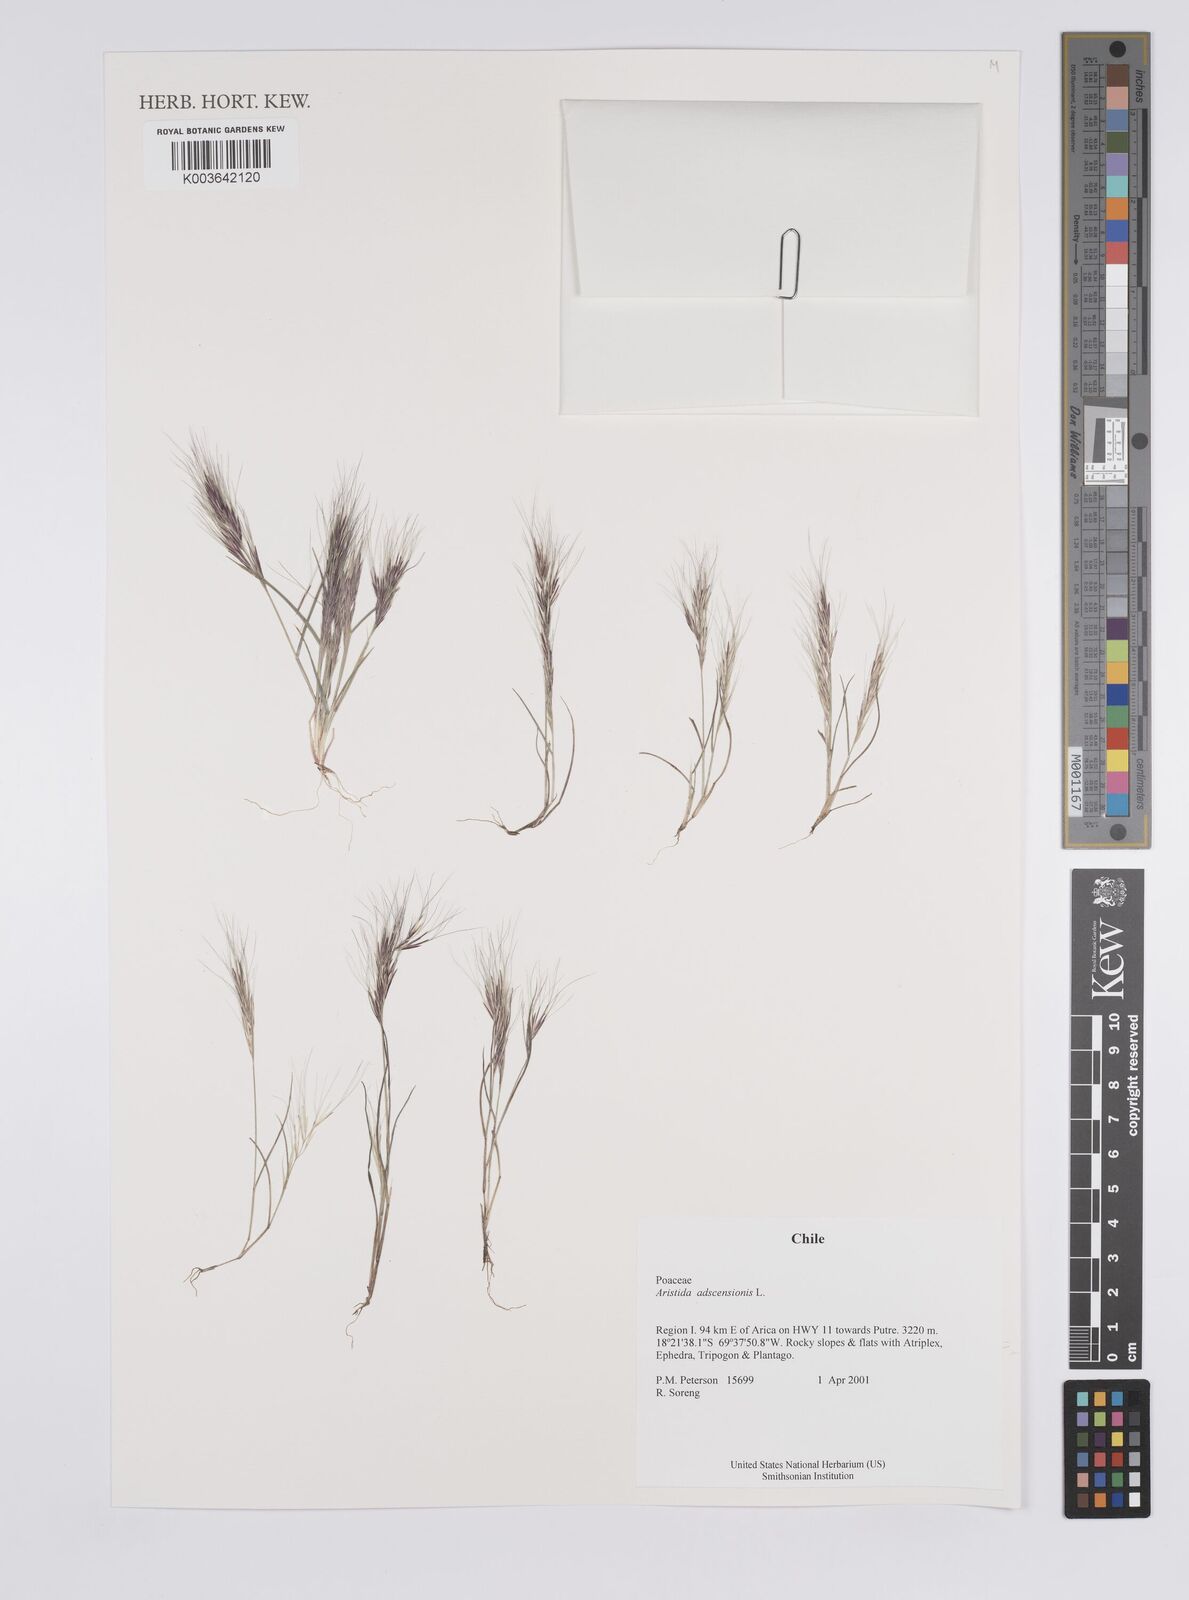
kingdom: Plantae
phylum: Tracheophyta
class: Liliopsida
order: Poales
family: Poaceae
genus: Aristida
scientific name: Aristida adscensionis
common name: Sixweeks threeawn
